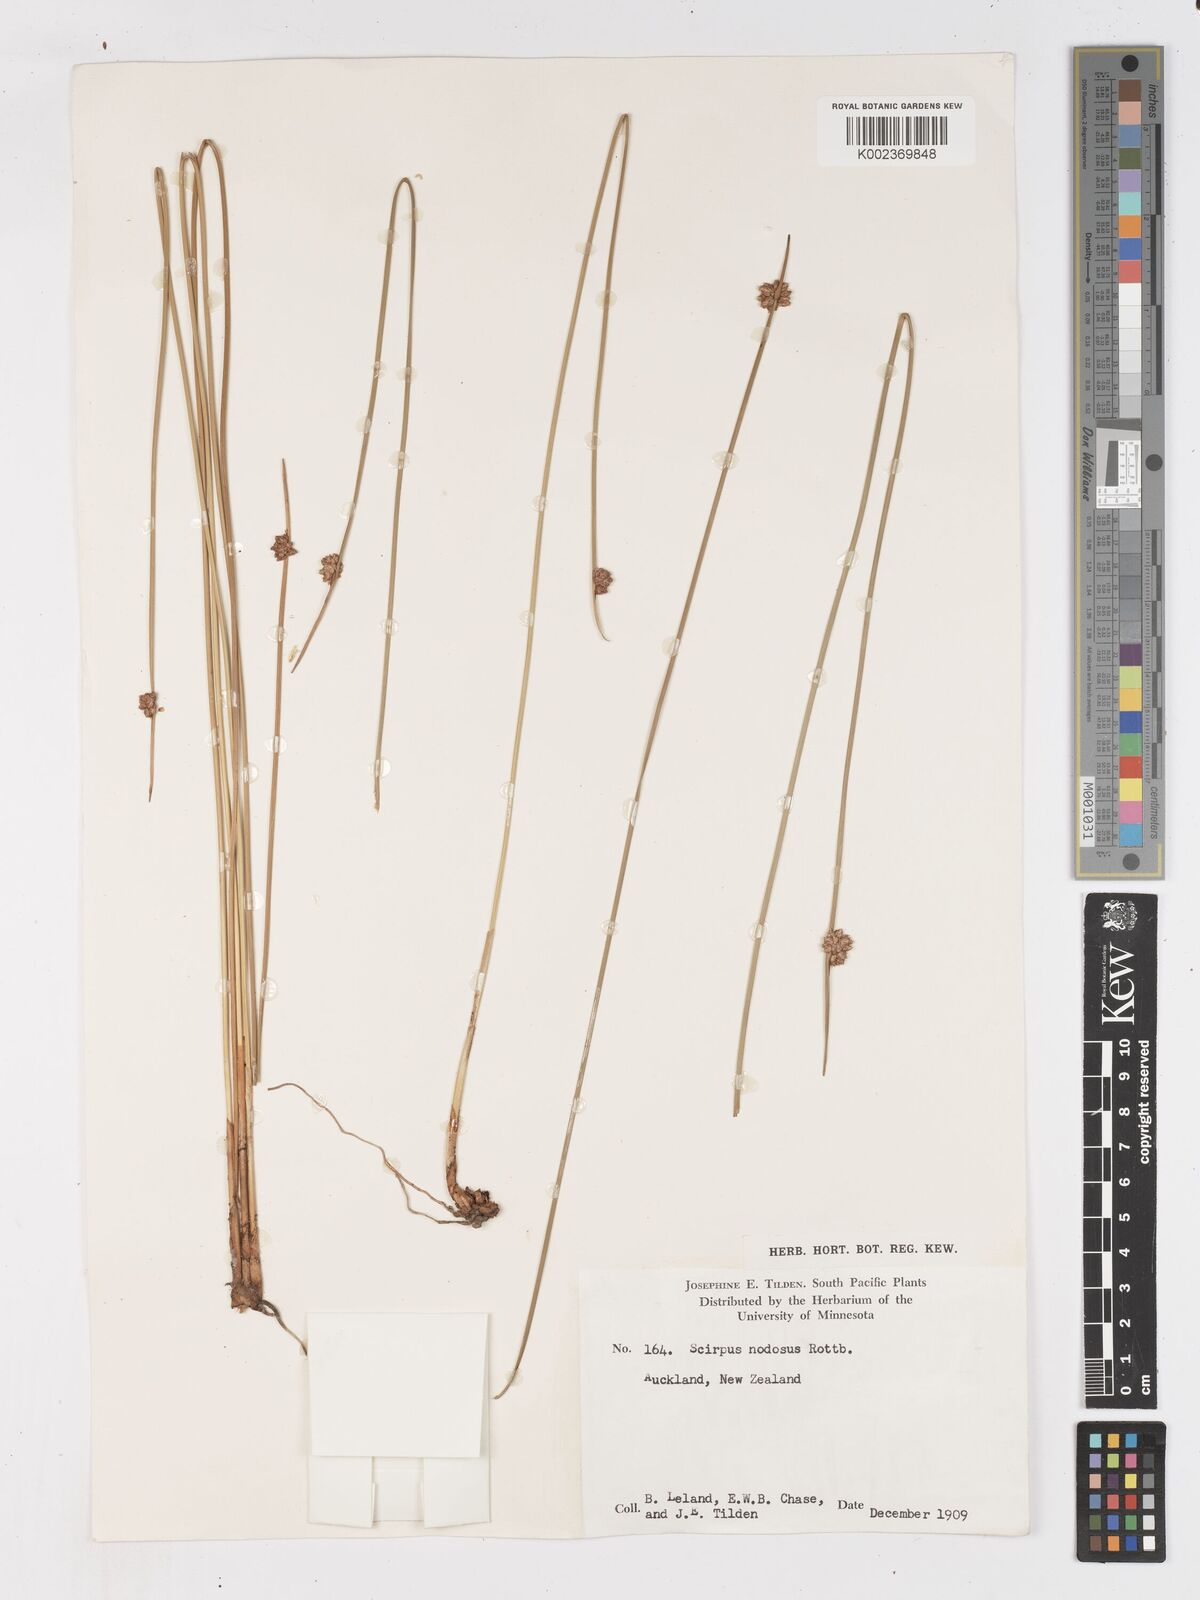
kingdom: Plantae
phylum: Tracheophyta
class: Liliopsida
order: Poales
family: Cyperaceae
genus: Ficinia
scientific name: Ficinia nodosa
